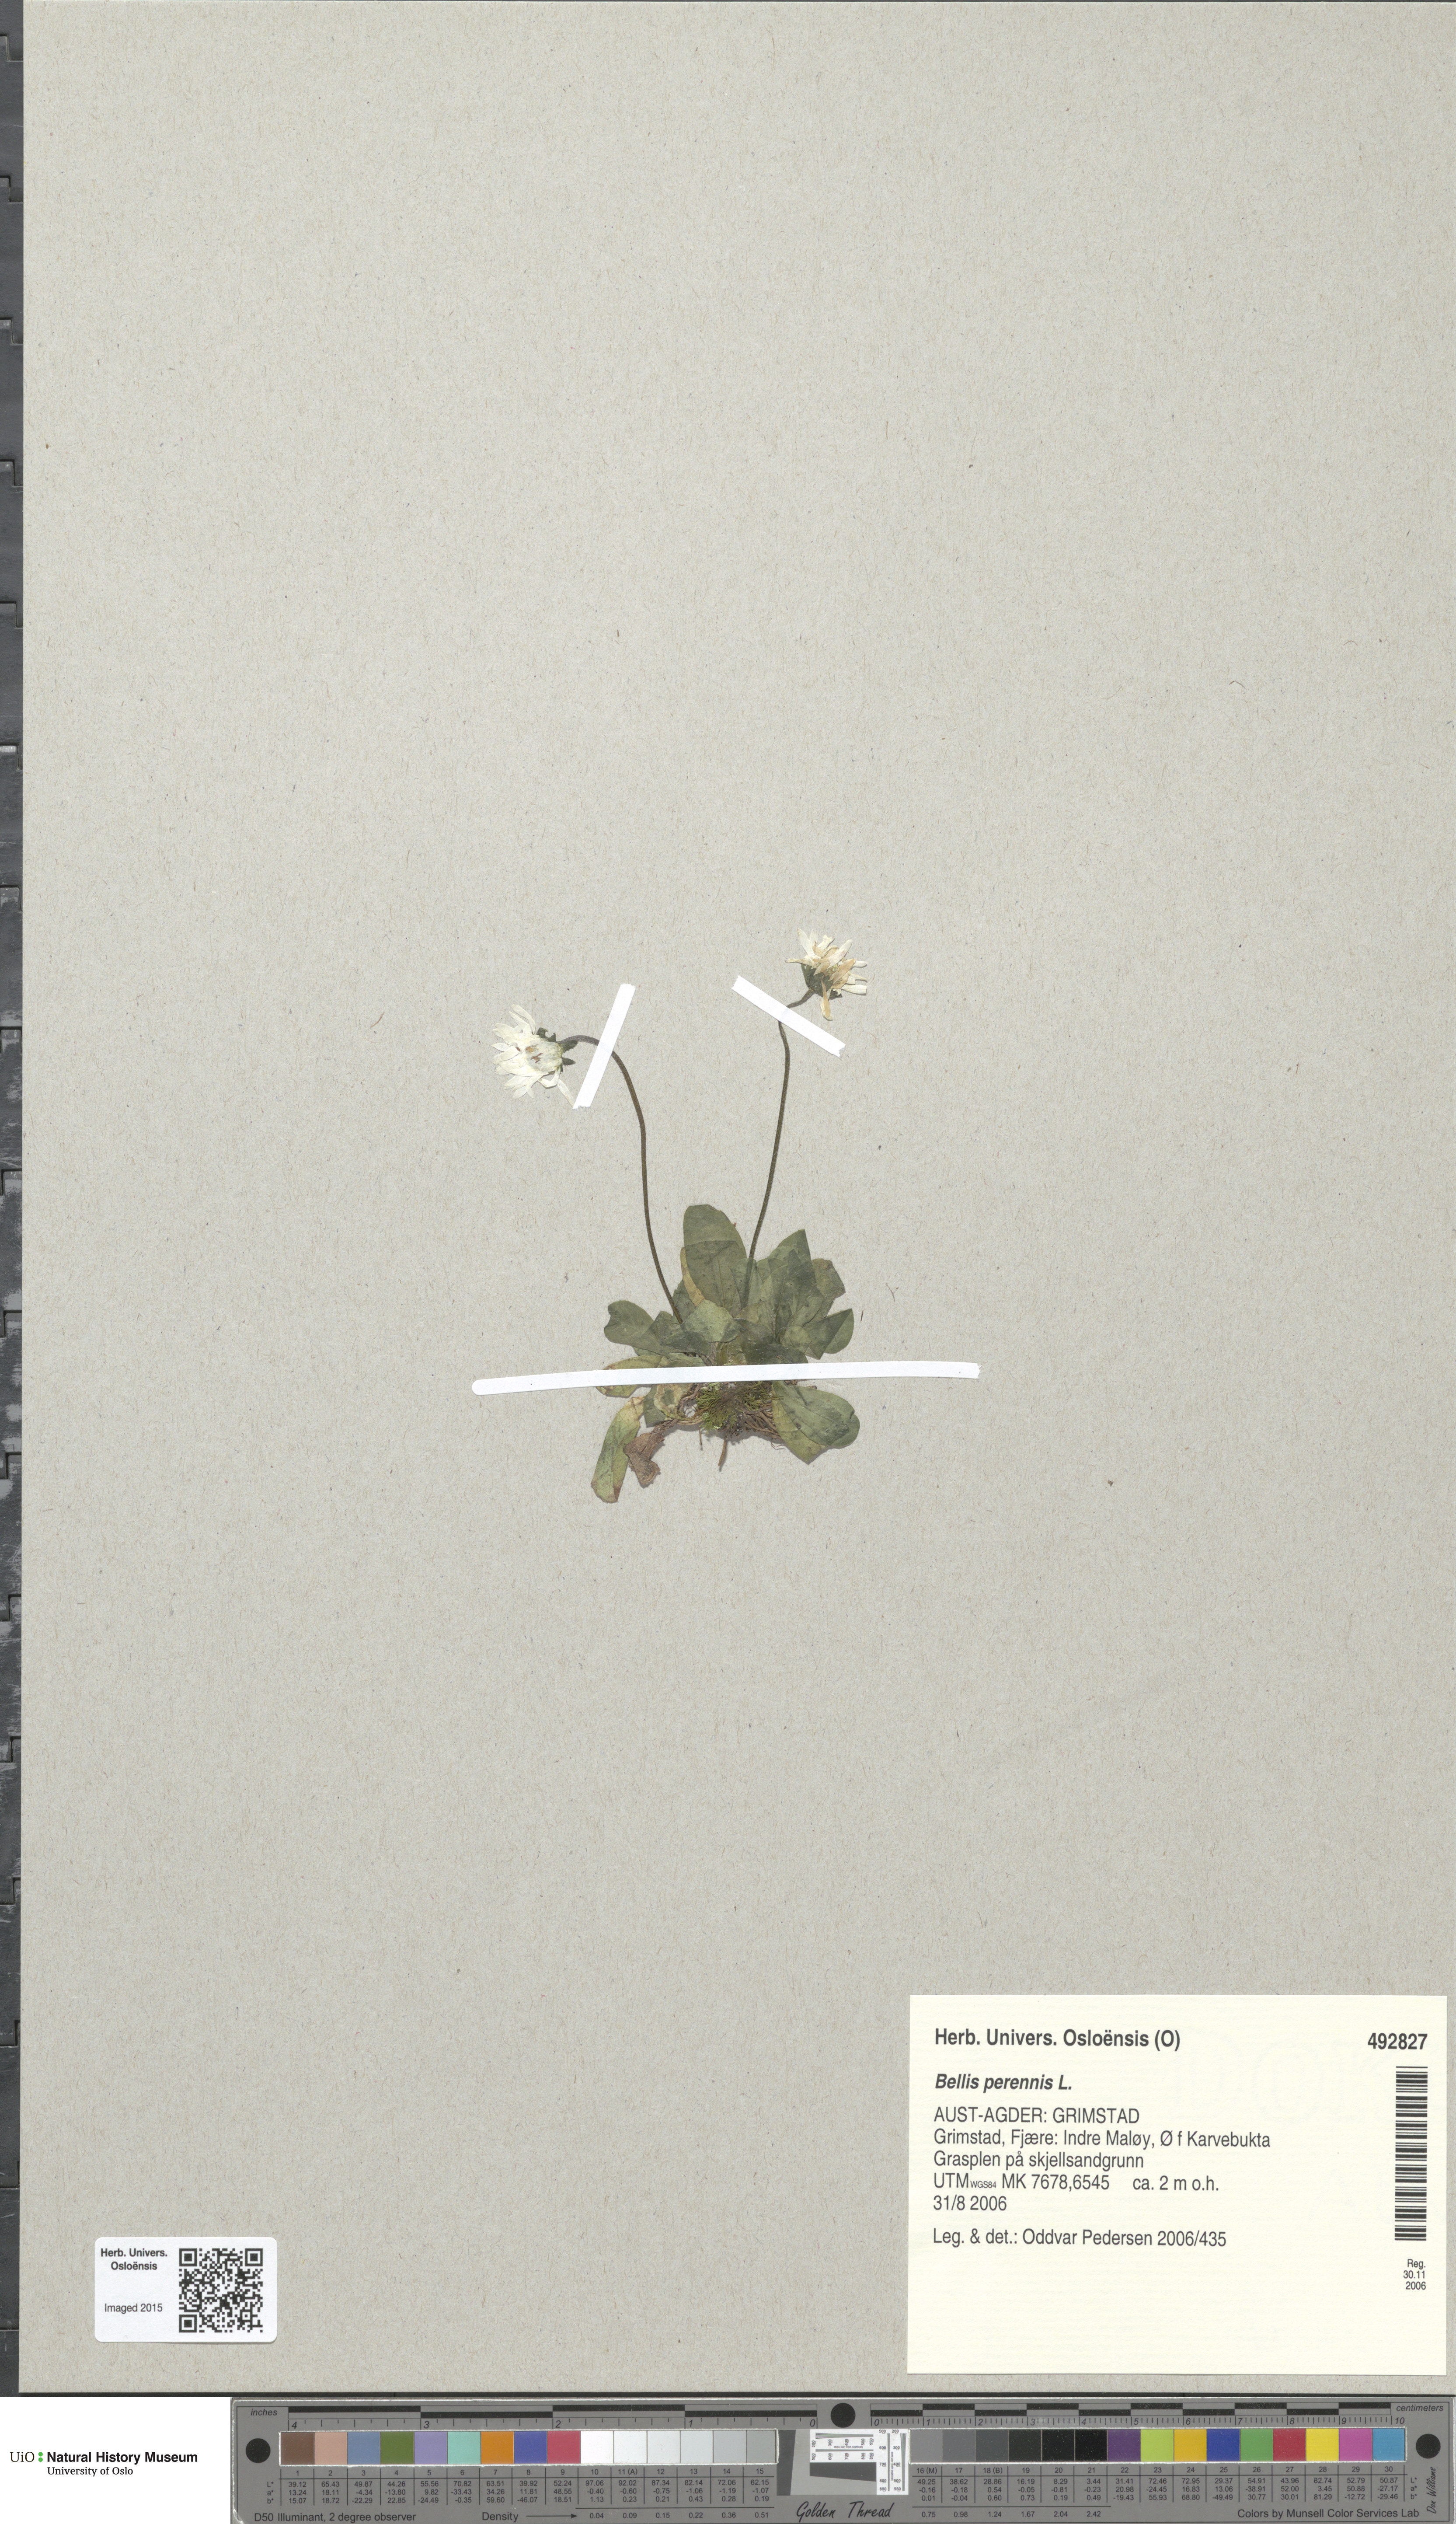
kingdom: Plantae
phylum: Tracheophyta
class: Magnoliopsida
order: Asterales
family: Asteraceae
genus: Bellis
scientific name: Bellis perennis
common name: Lawndaisy
